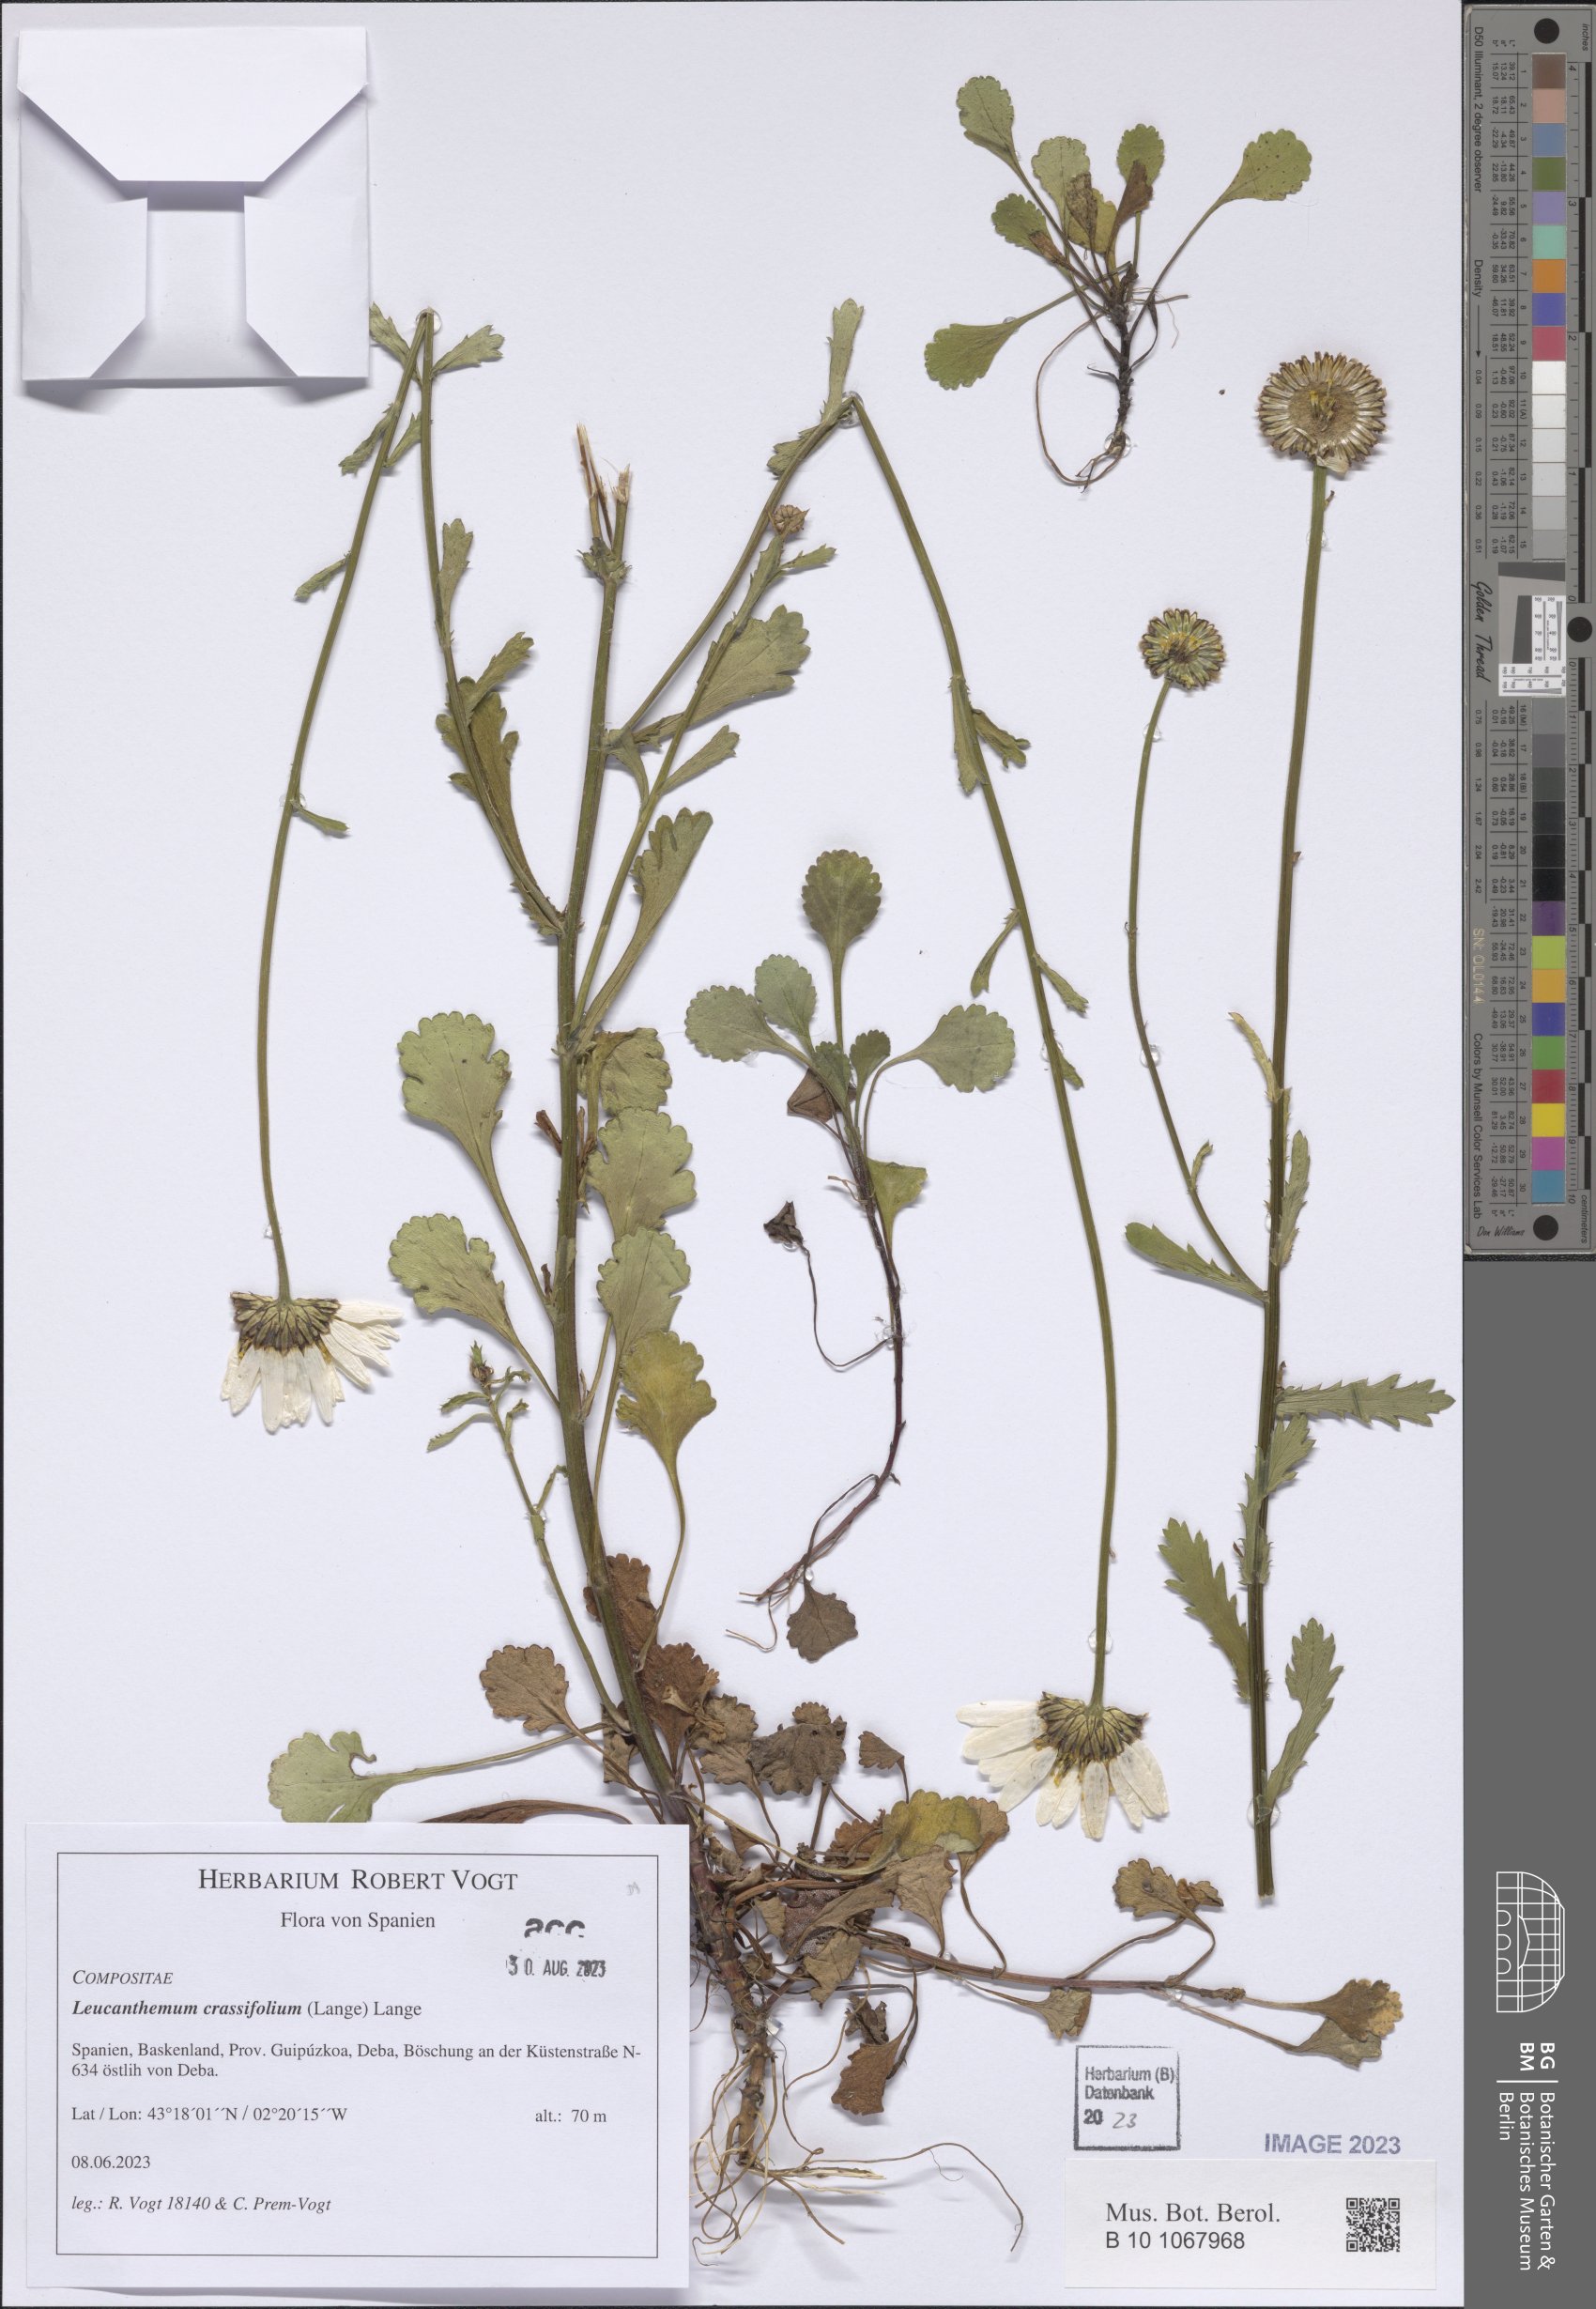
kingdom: Plantae
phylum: Tracheophyta
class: Magnoliopsida
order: Asterales
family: Asteraceae
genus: Leucanthemum
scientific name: Leucanthemum crassifolium
